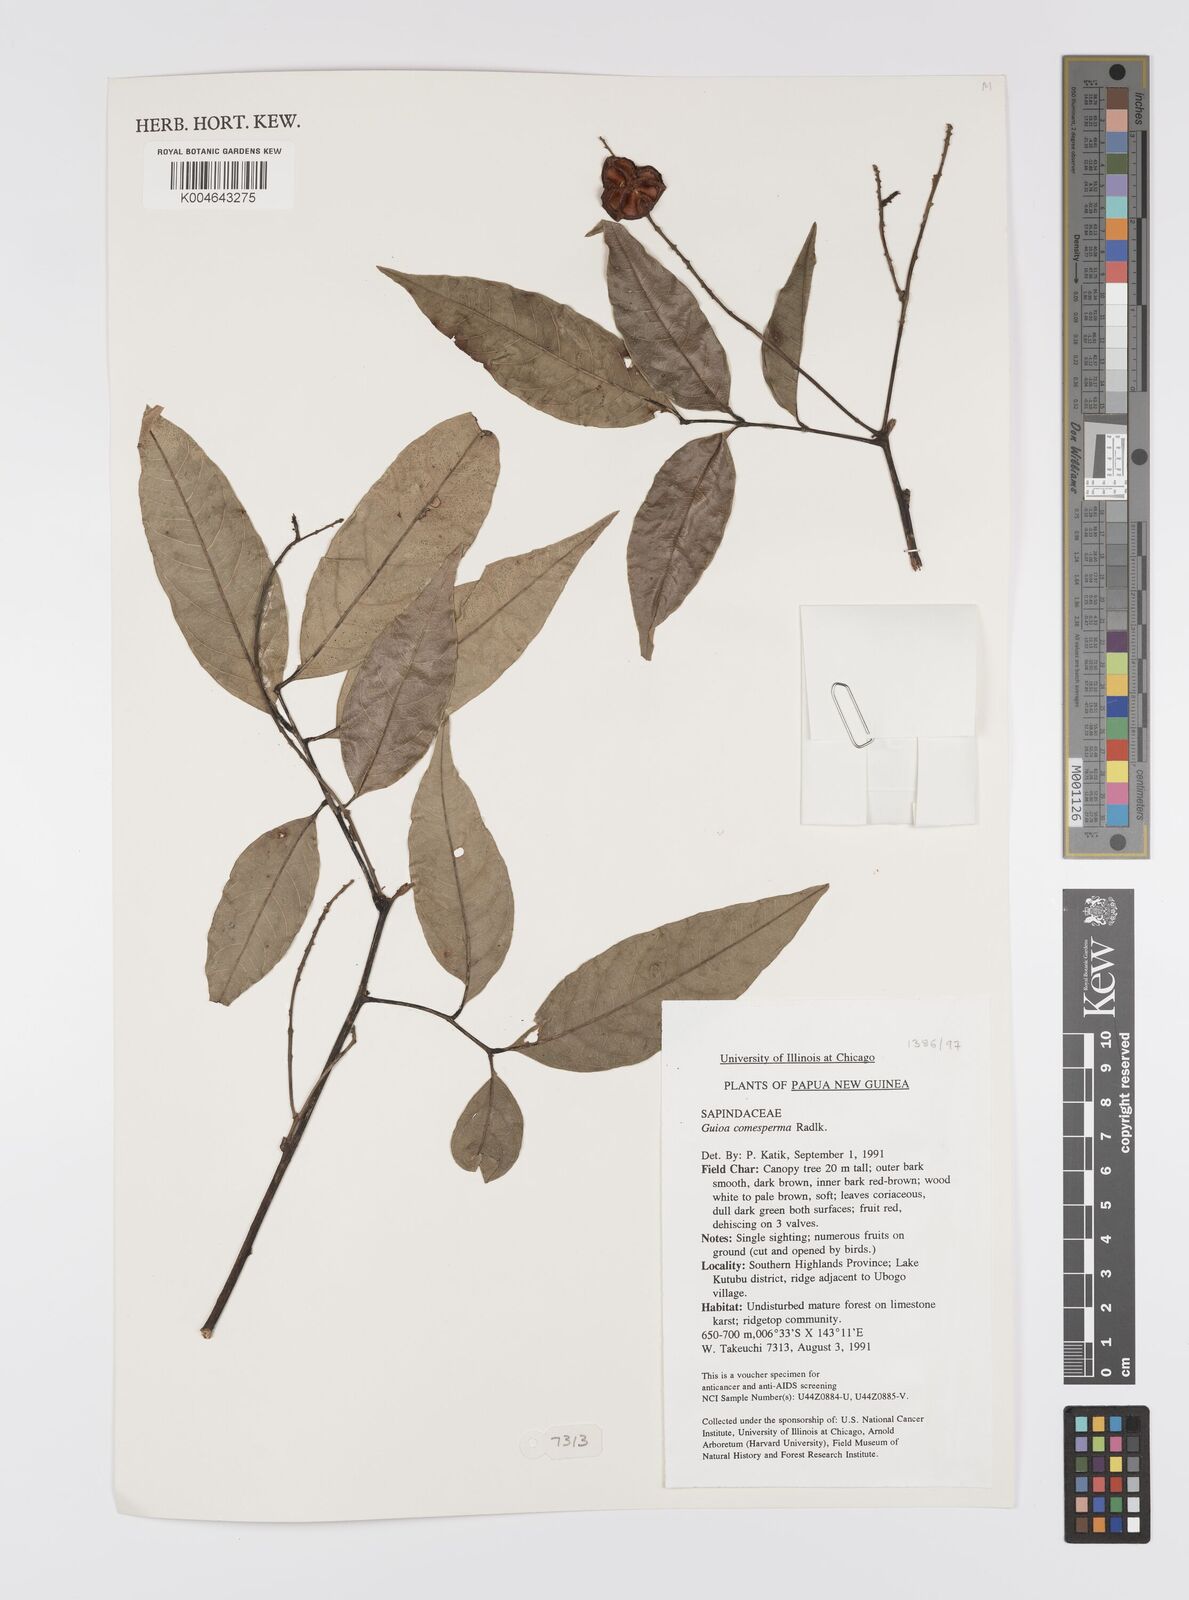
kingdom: Plantae
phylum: Tracheophyta
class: Magnoliopsida
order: Sapindales
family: Sapindaceae
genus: Guioa
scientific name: Guioa comesperma
